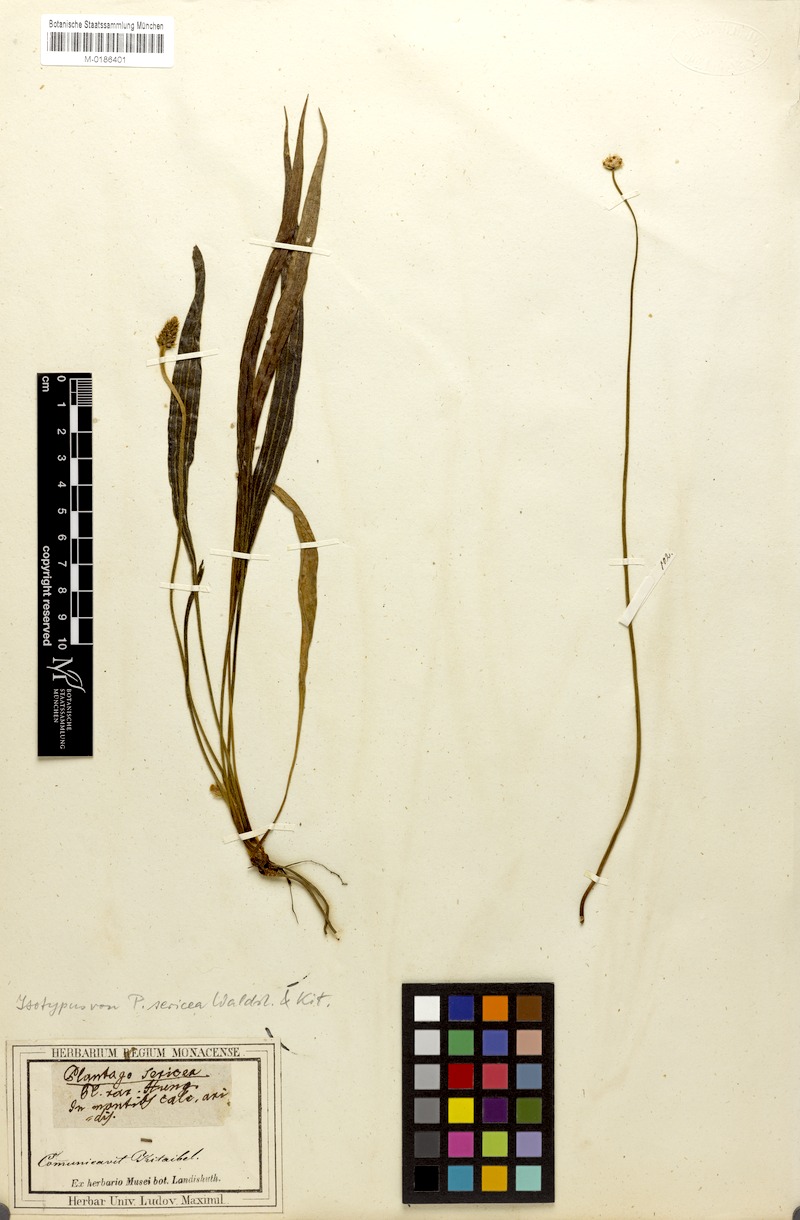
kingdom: Plantae
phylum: Tracheophyta
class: Magnoliopsida
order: Lamiales
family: Plantaginaceae
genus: Plantago
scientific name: Plantago argentea
